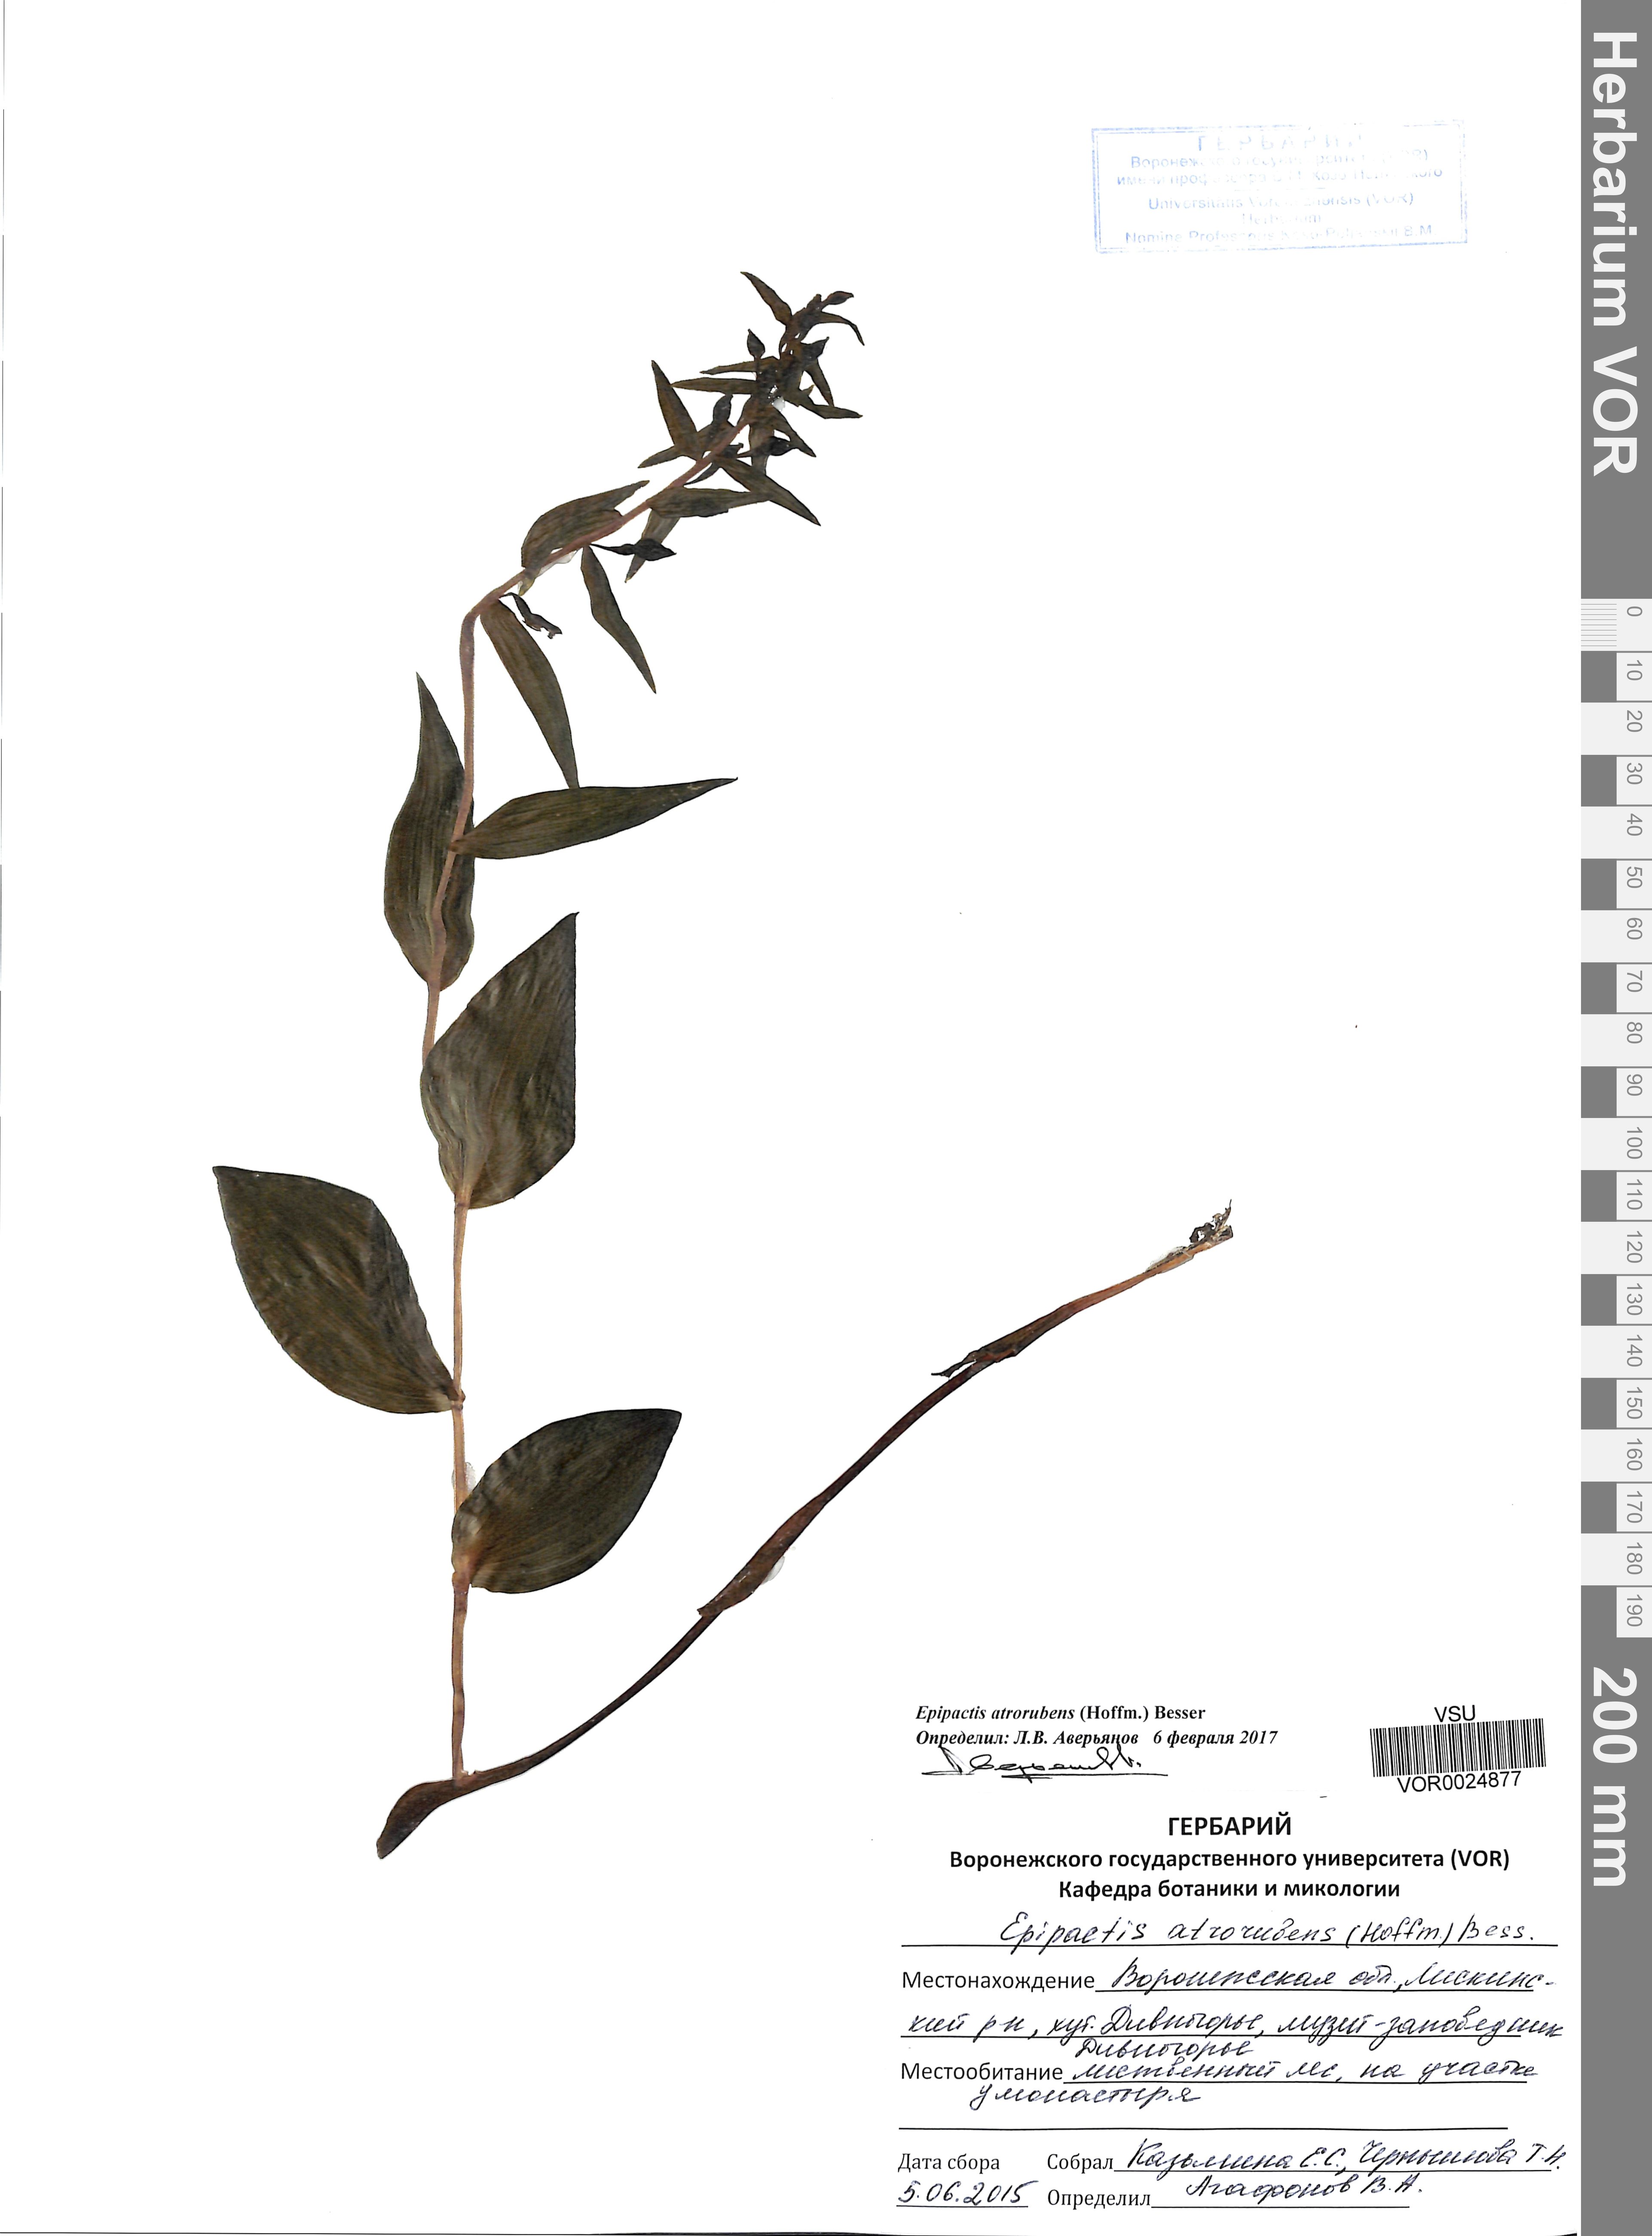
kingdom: Plantae
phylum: Tracheophyta
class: Liliopsida
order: Asparagales
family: Orchidaceae
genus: Epipactis
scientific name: Epipactis atrorubens
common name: Dark-red helleborine
